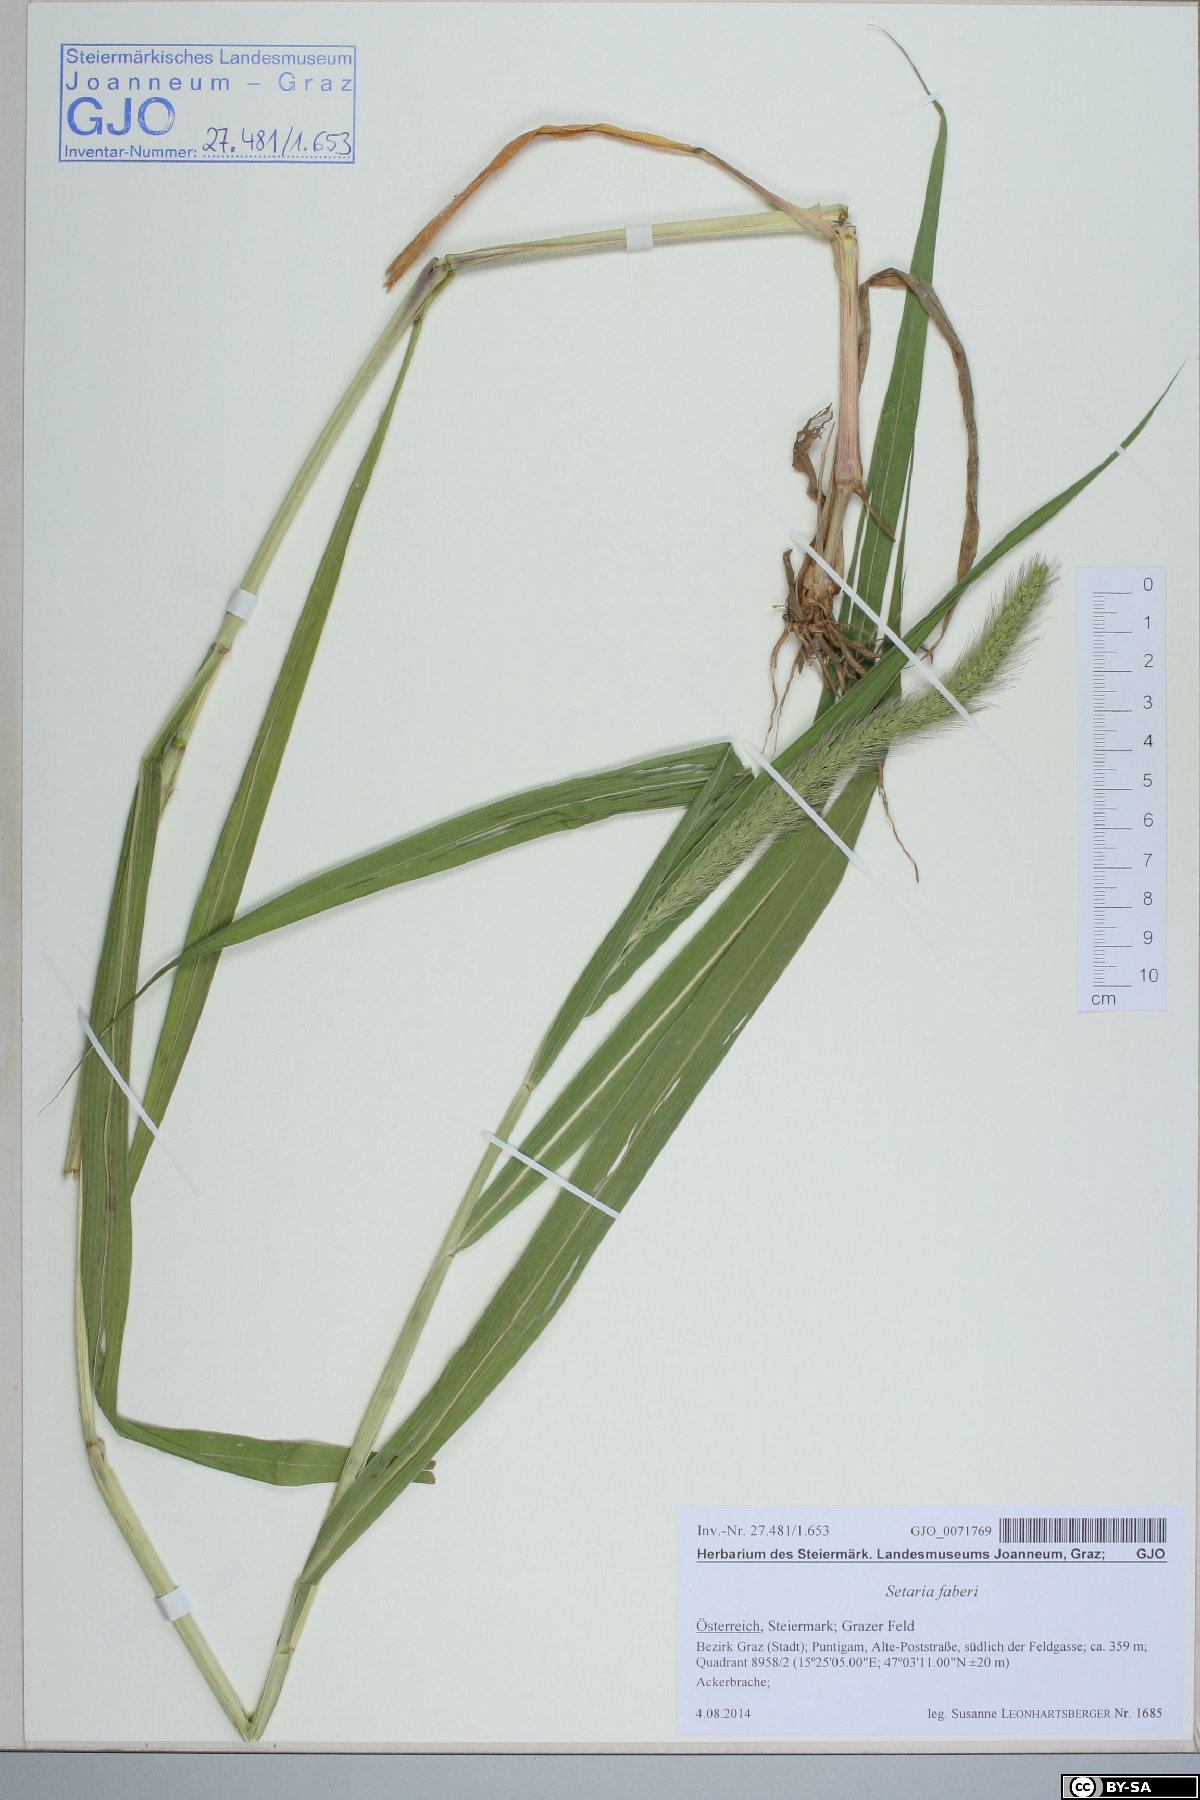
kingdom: Plantae
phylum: Tracheophyta
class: Liliopsida
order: Poales
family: Poaceae
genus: Setaria
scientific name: Setaria faberi
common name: Nodding bristle-grass
